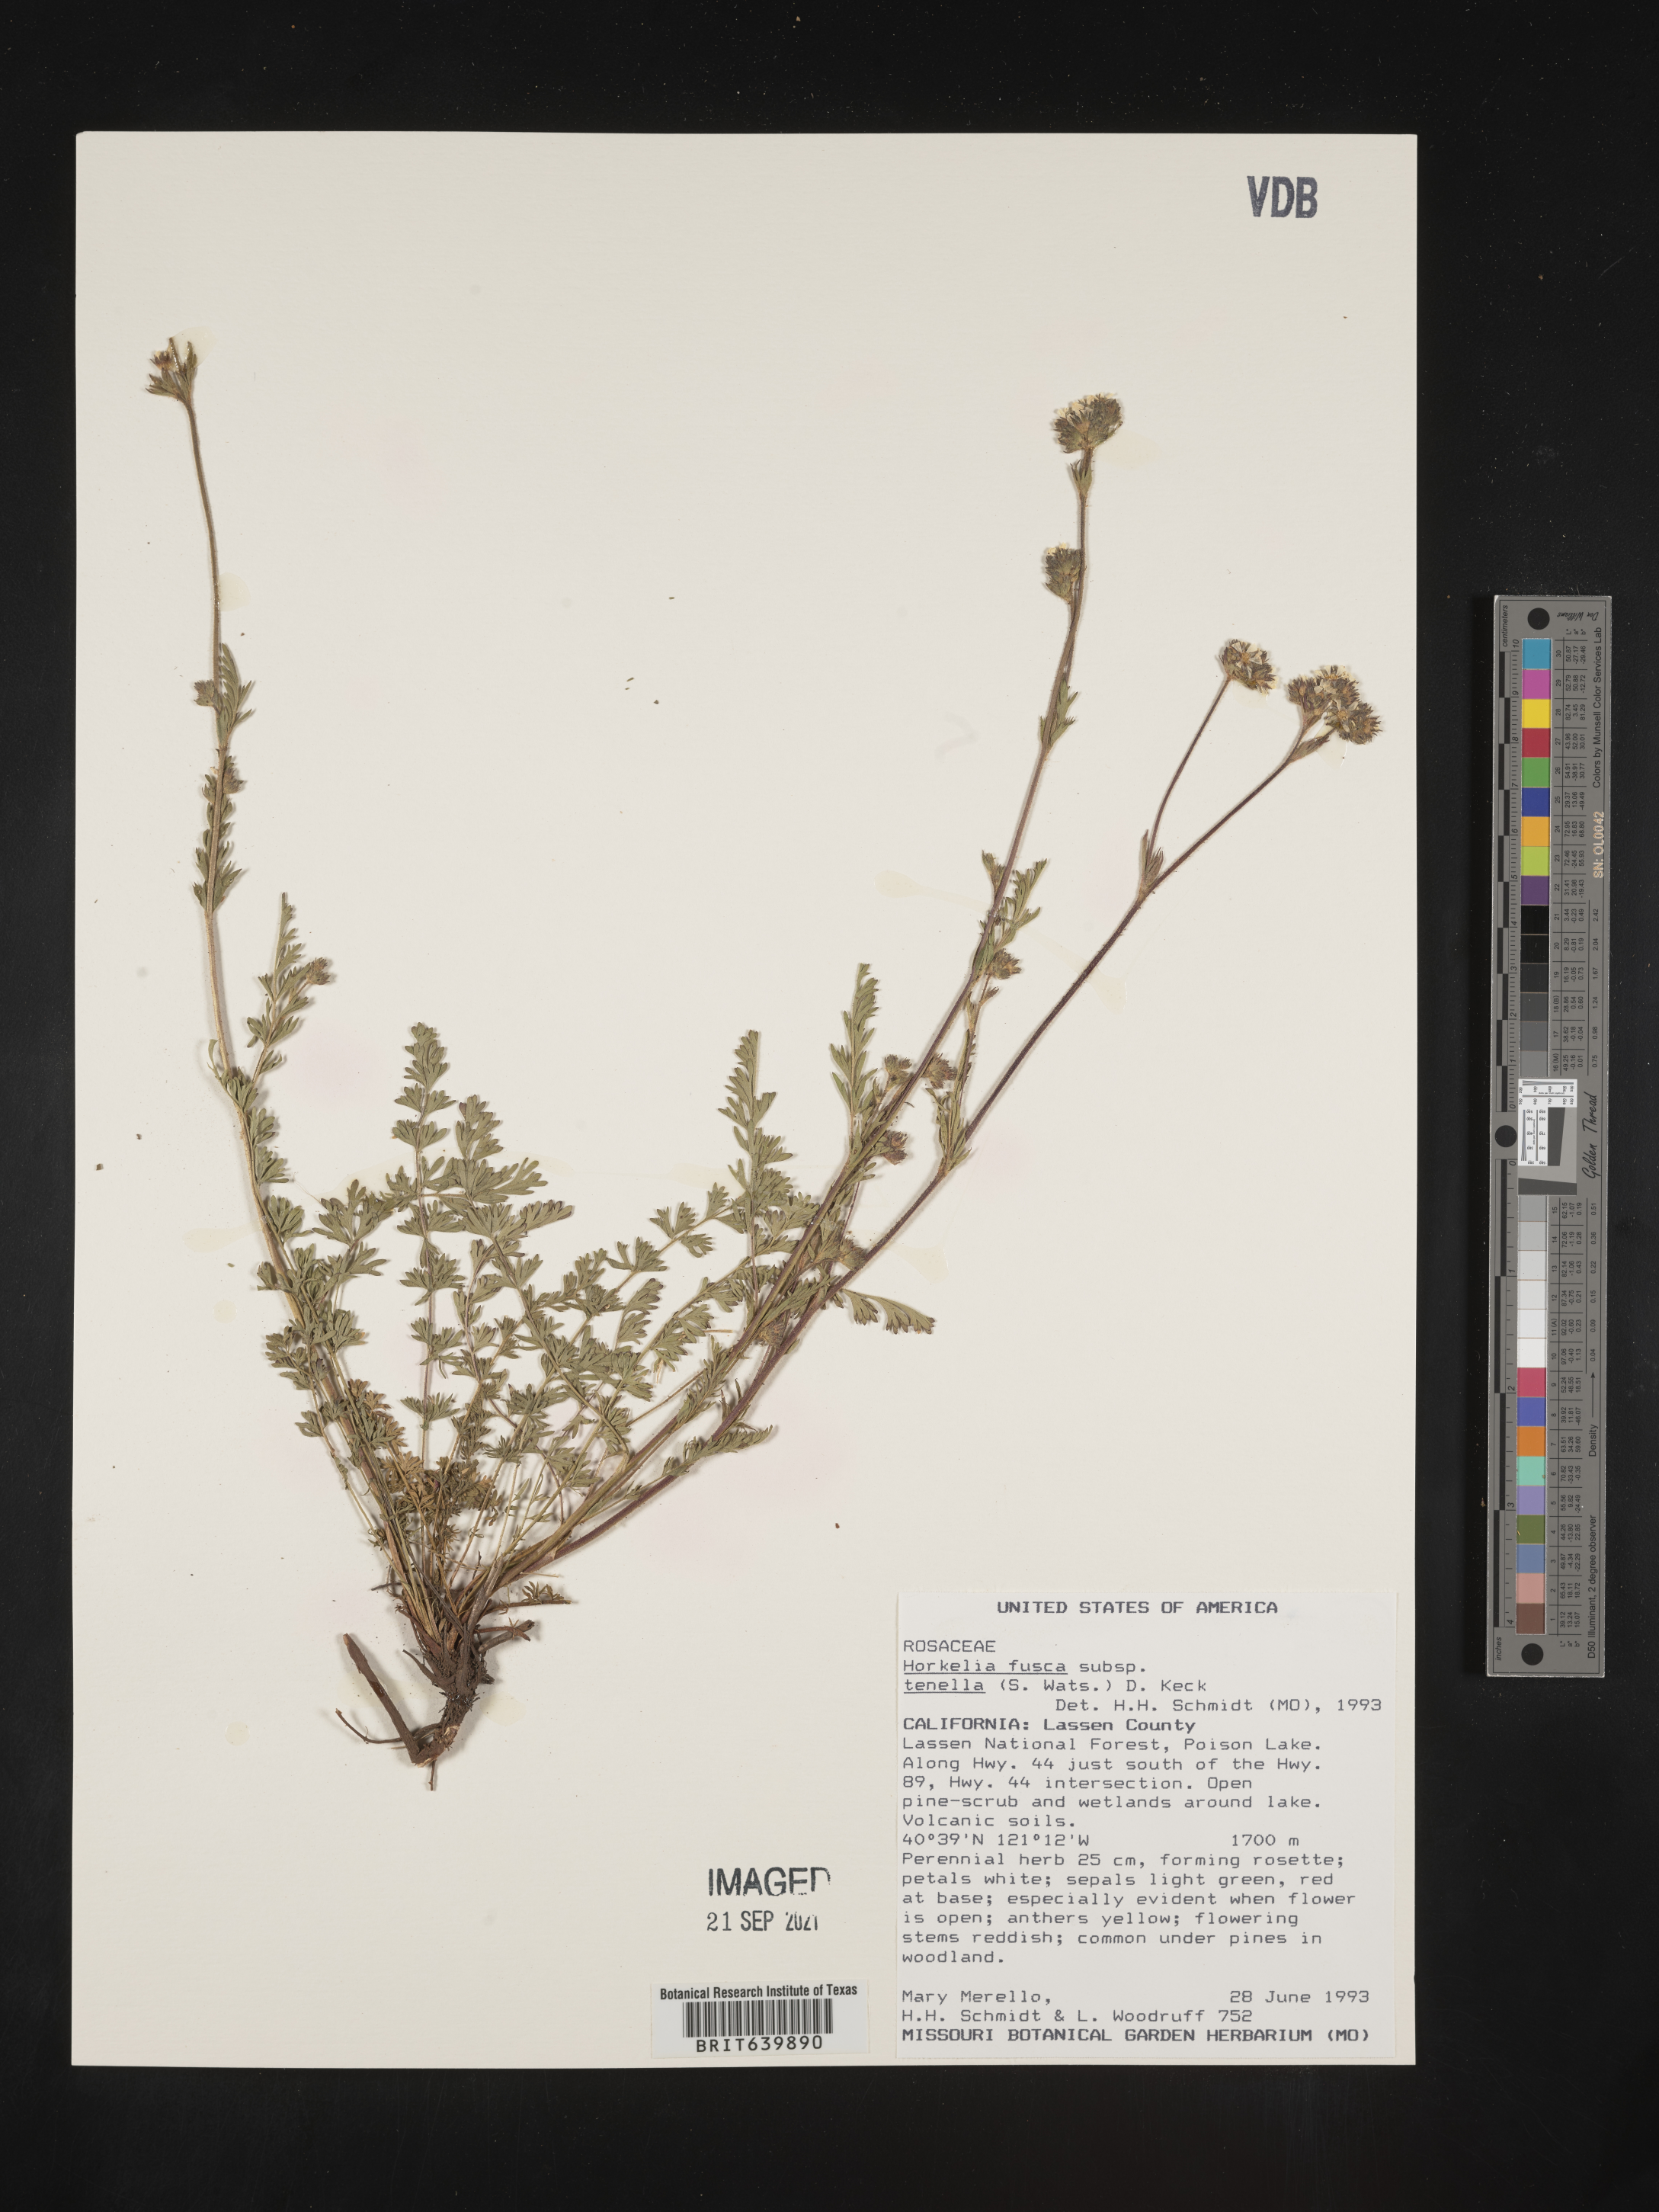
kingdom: Plantae
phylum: Tracheophyta
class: Magnoliopsida
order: Rosales
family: Rosaceae
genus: Potentilla
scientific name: Potentilla douglasii
